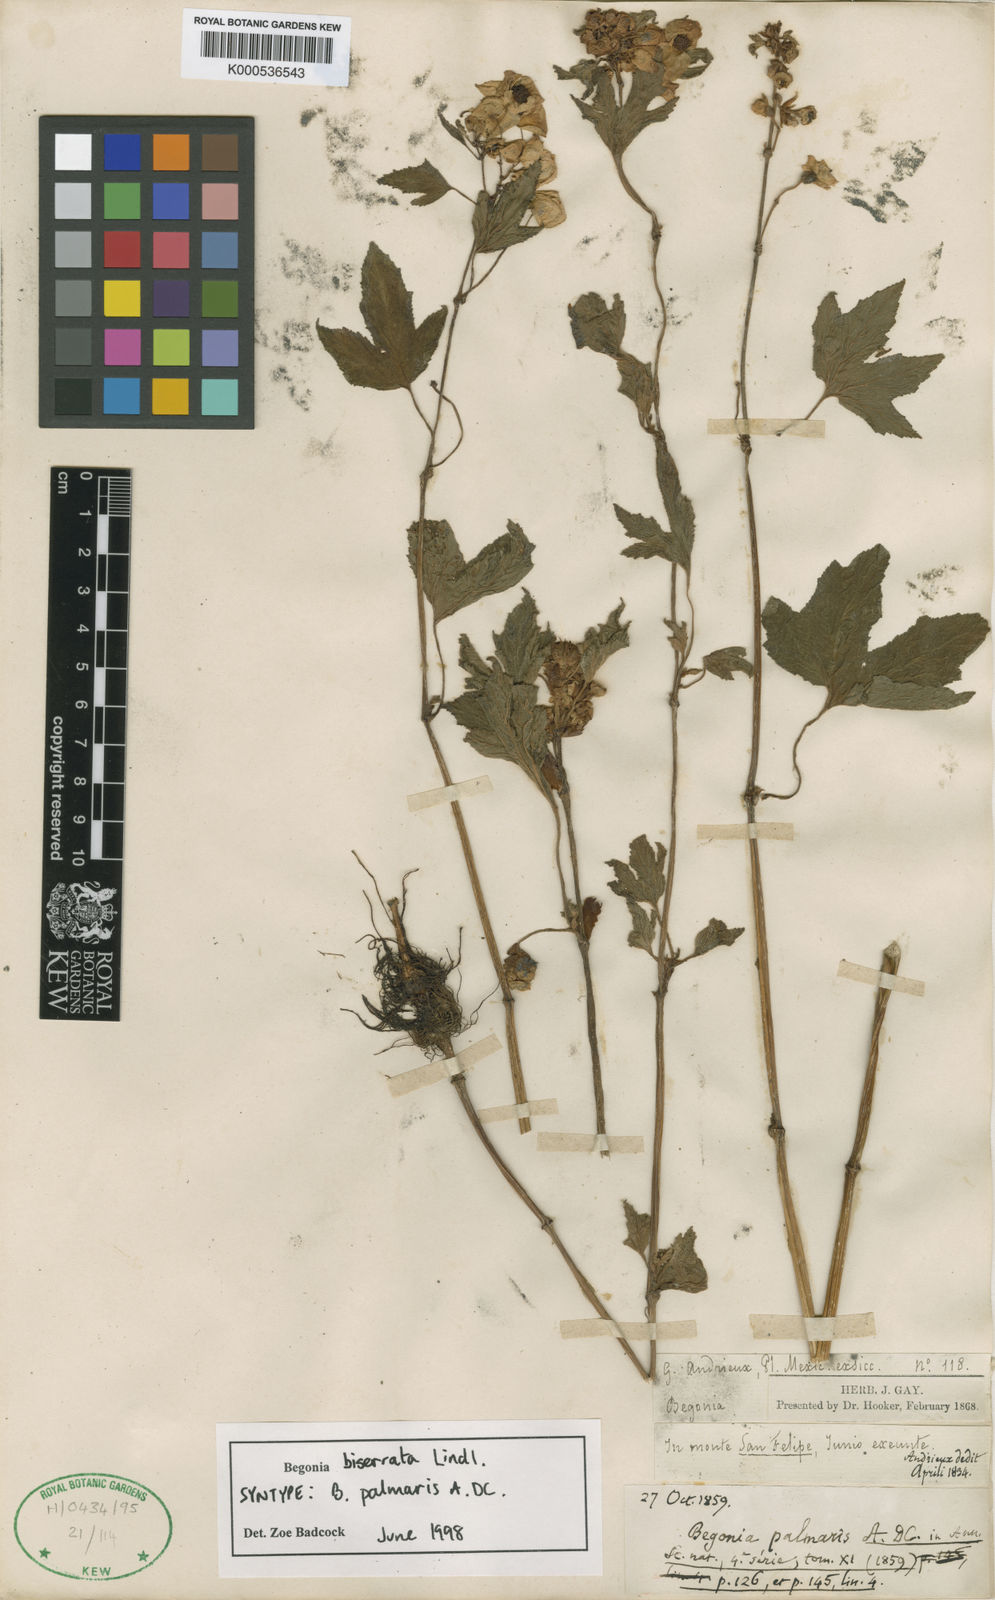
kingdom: Plantae
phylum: Tracheophyta
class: Magnoliopsida
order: Cucurbitales
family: Begoniaceae
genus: Begonia
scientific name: Begonia biserrata
